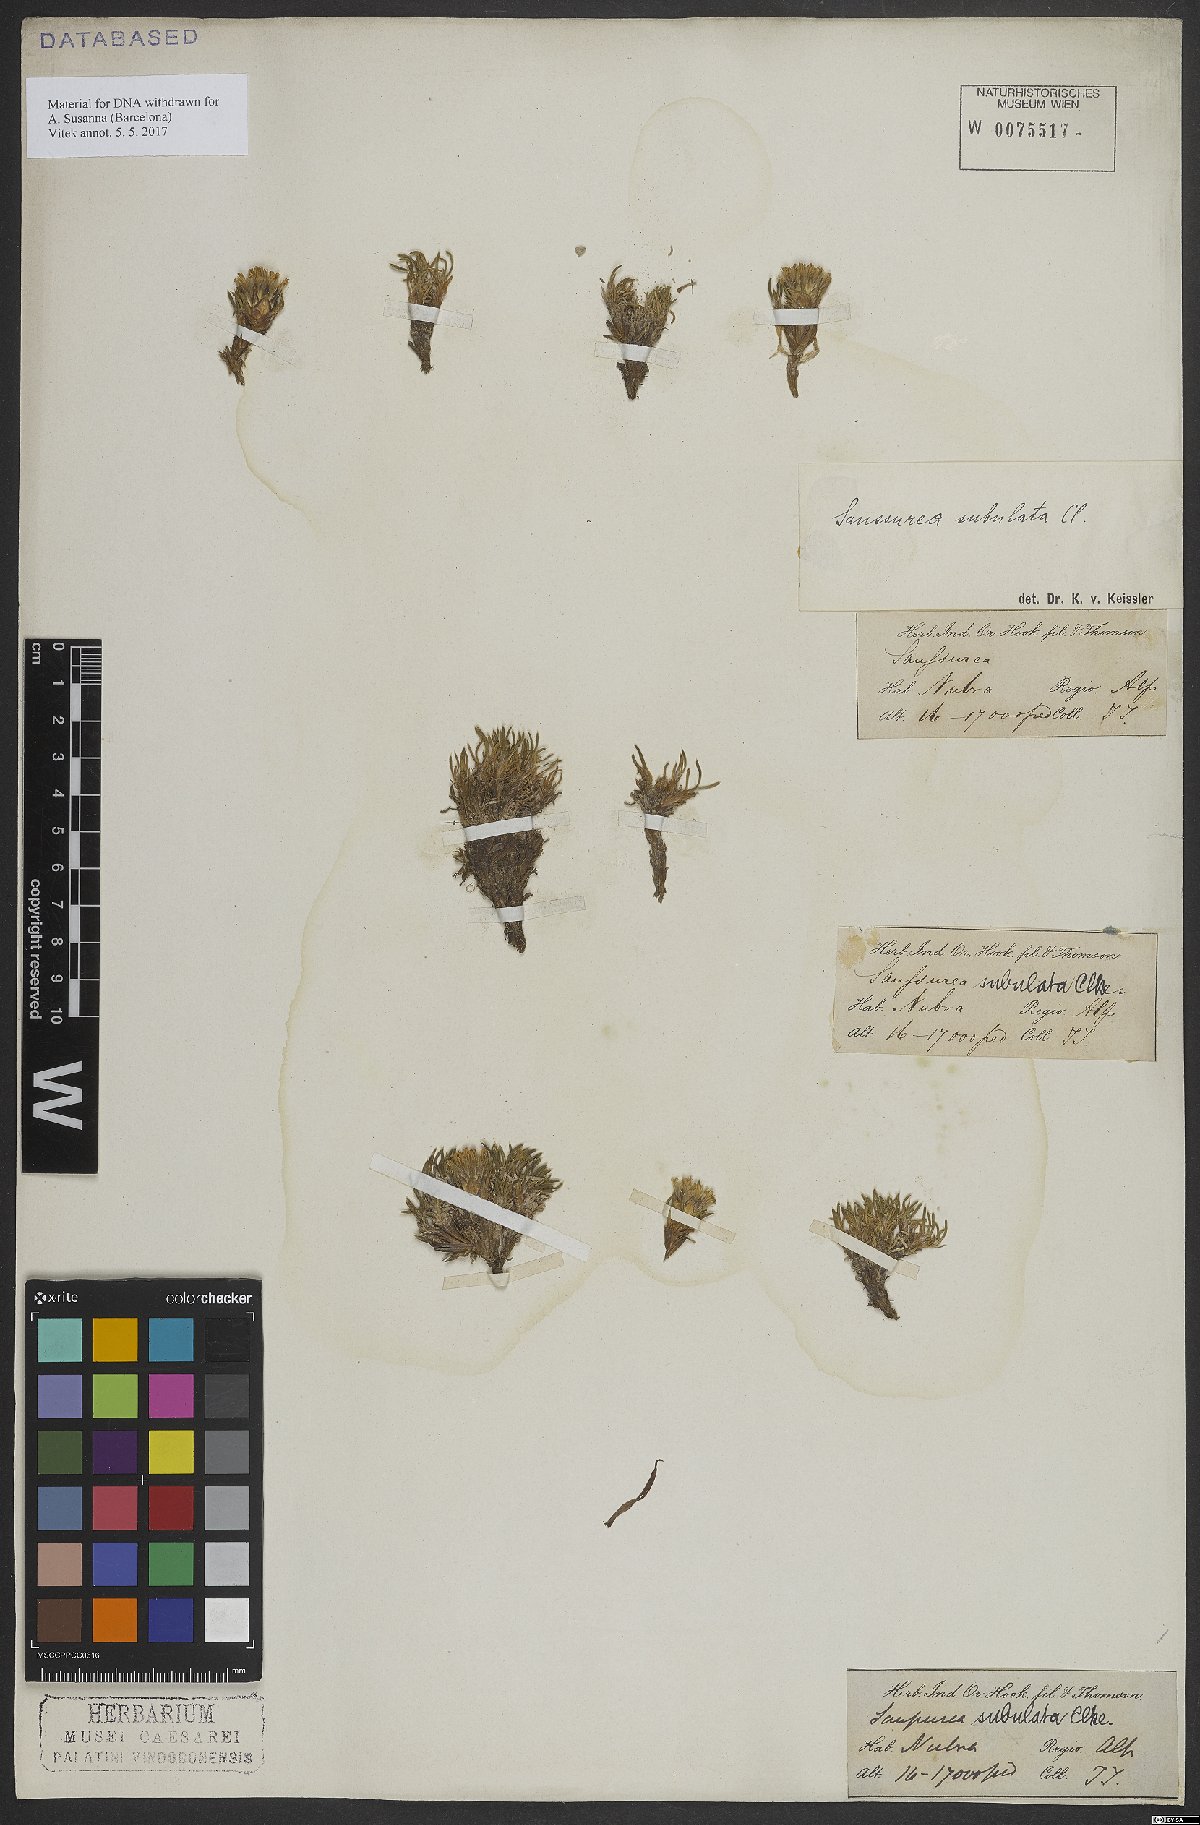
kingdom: Plantae
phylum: Tracheophyta
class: Magnoliopsida
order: Asterales
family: Asteraceae
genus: Saussurea
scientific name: Saussurea subulata
